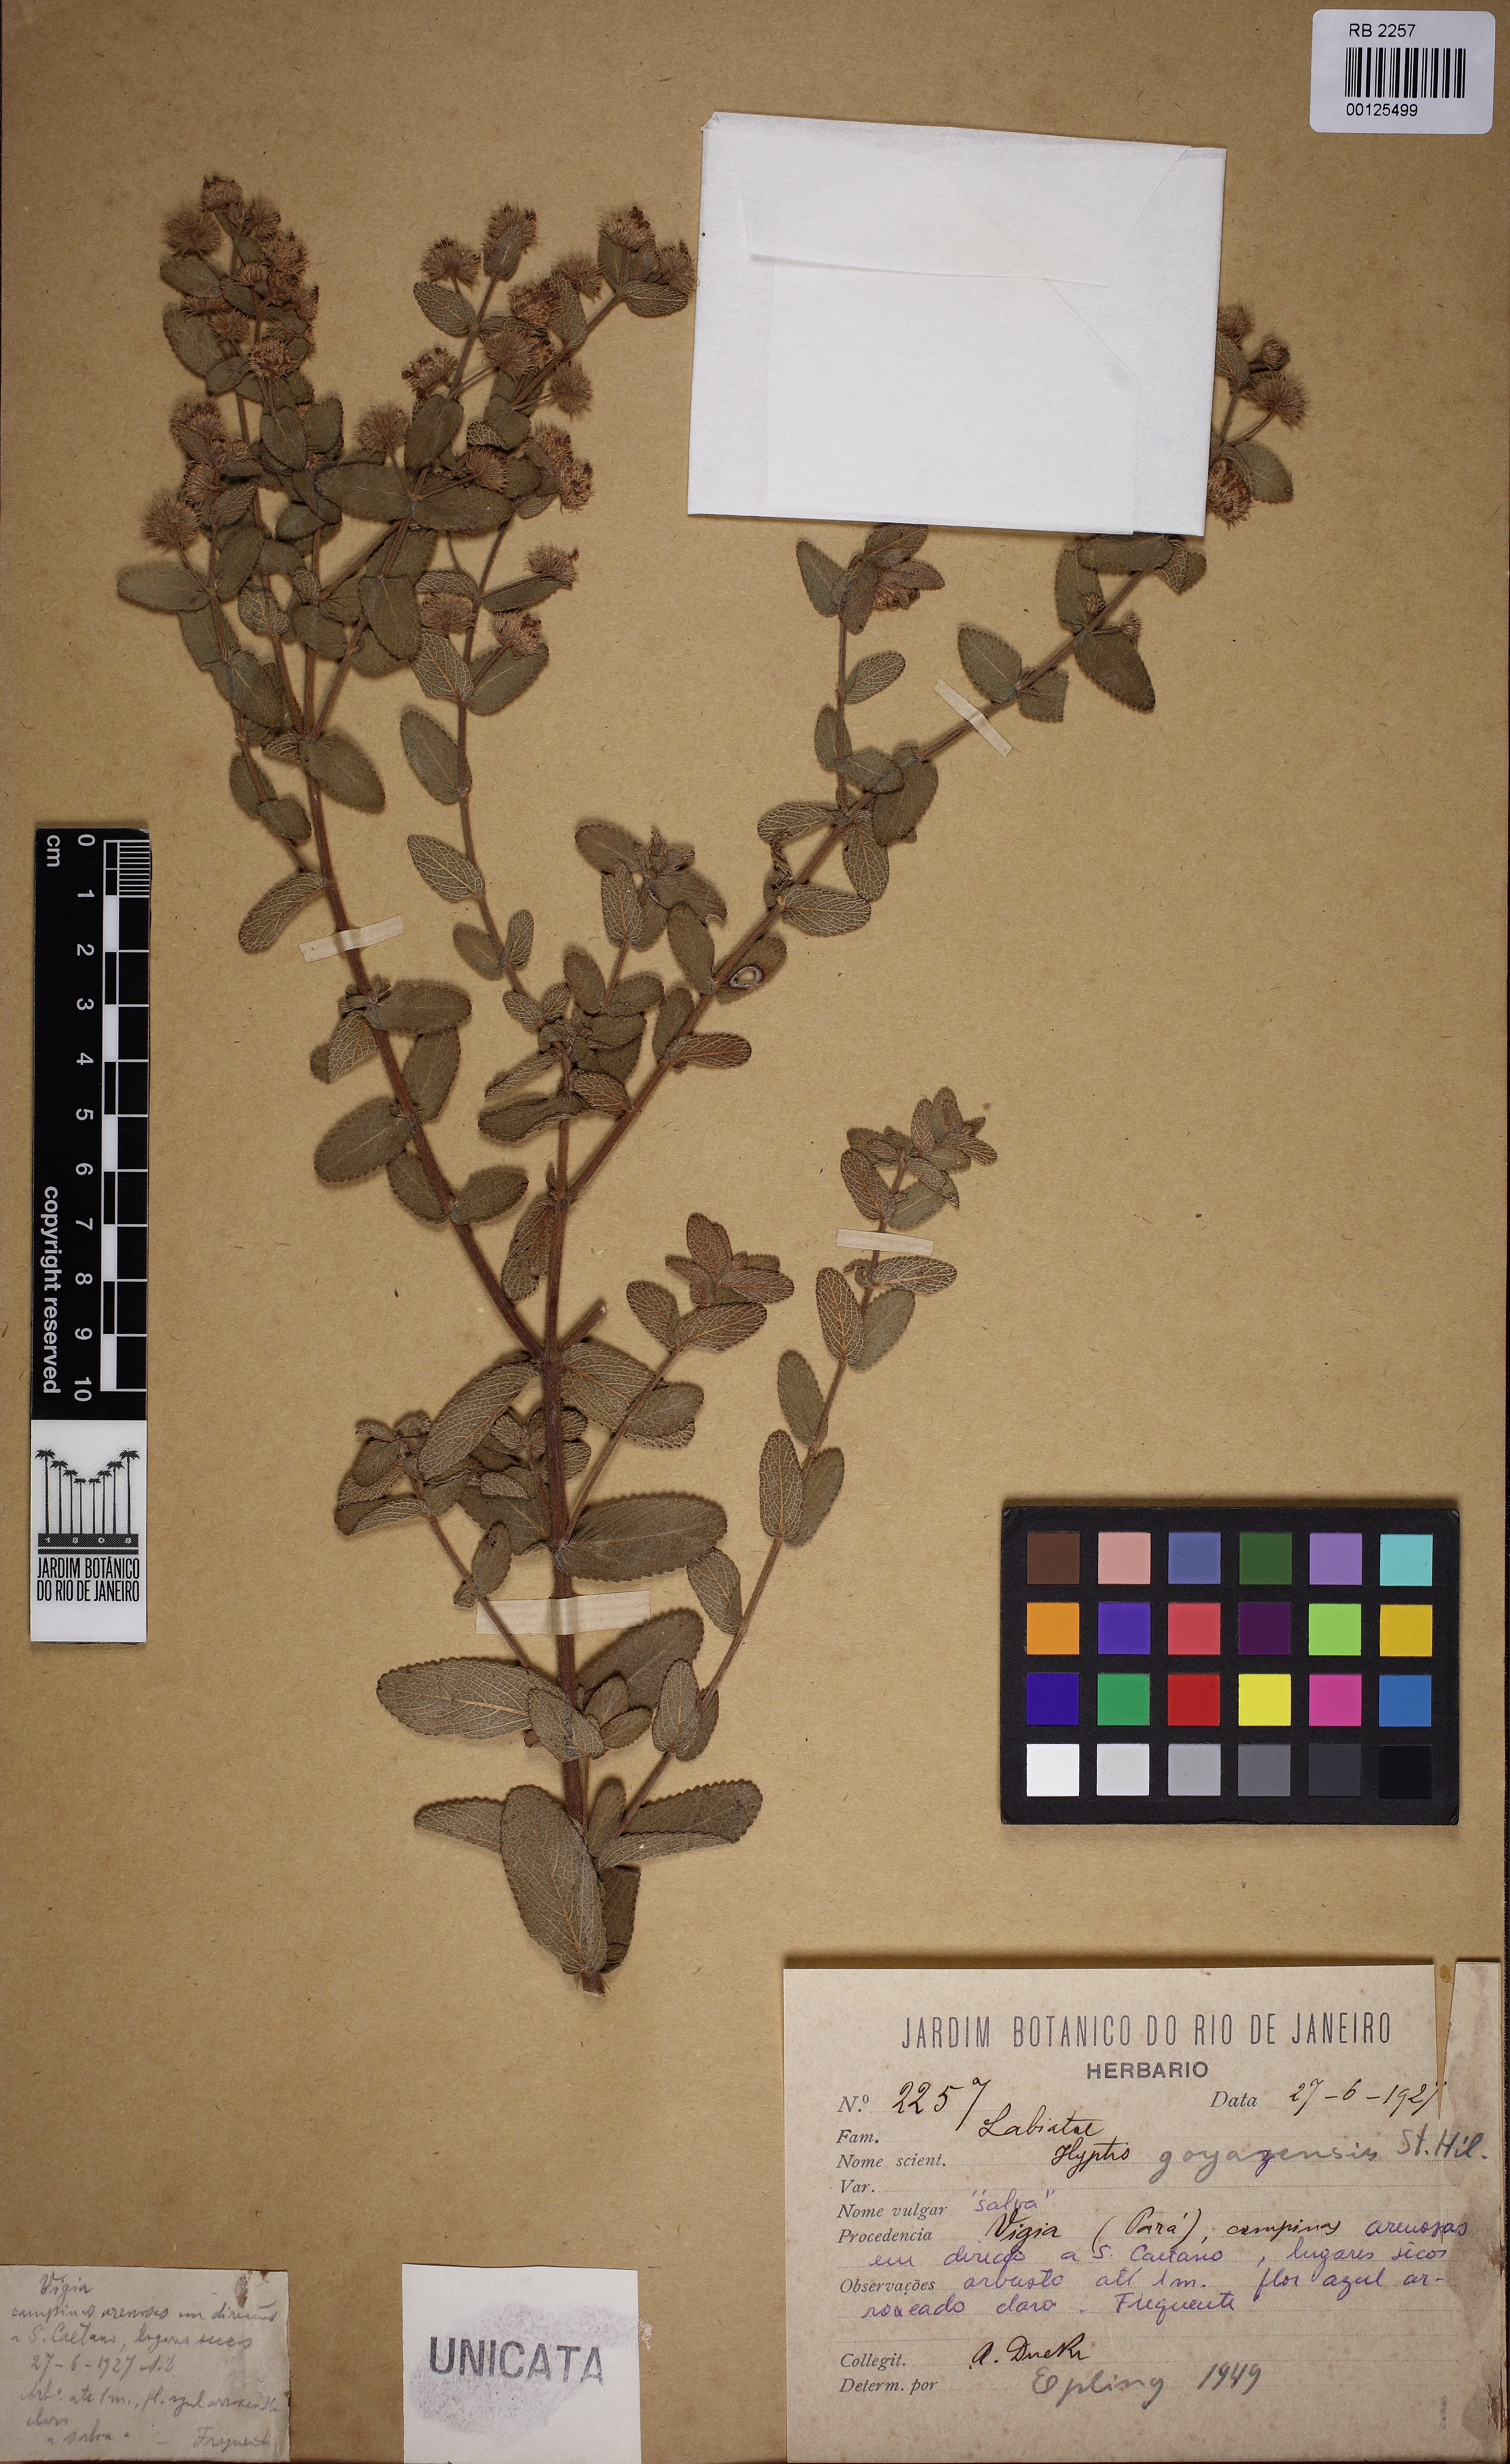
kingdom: Plantae
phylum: Tracheophyta
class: Magnoliopsida
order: Lamiales
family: Lamiaceae
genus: Hyptis
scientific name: Hyptis goyazensis
